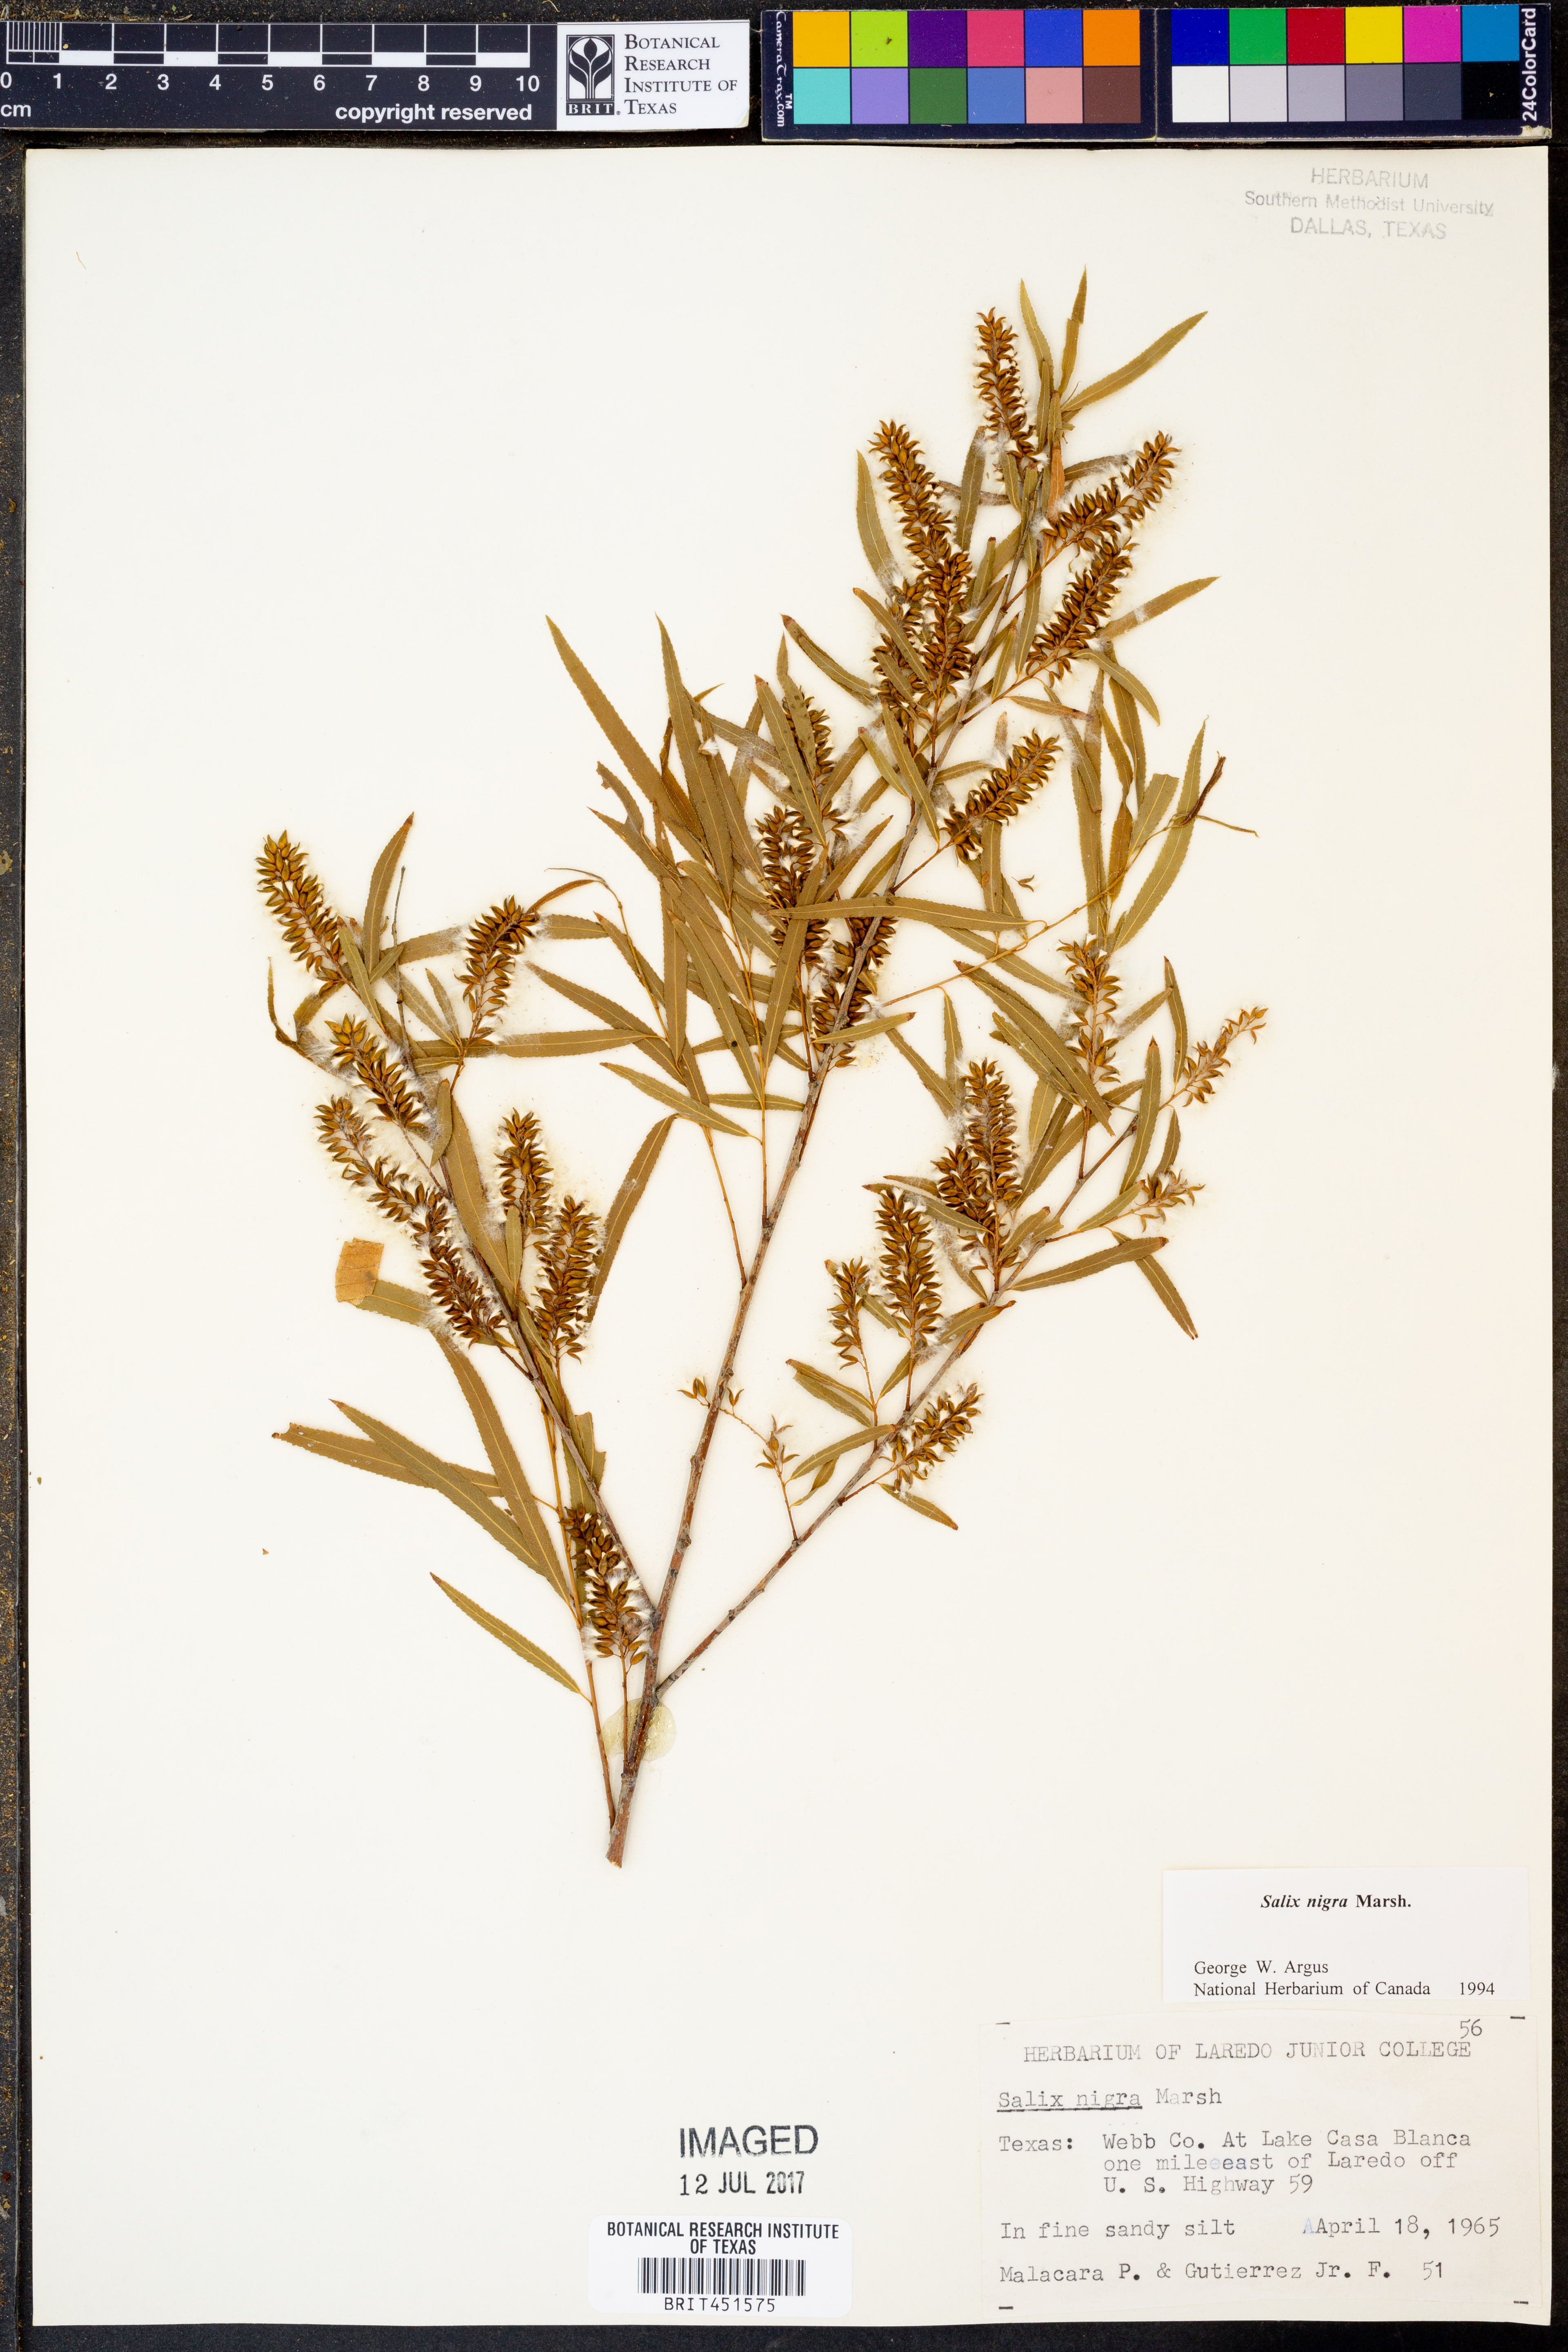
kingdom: Plantae
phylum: Tracheophyta
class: Magnoliopsida
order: Malpighiales
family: Salicaceae
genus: Salix
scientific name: Salix nigra
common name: Black willow
